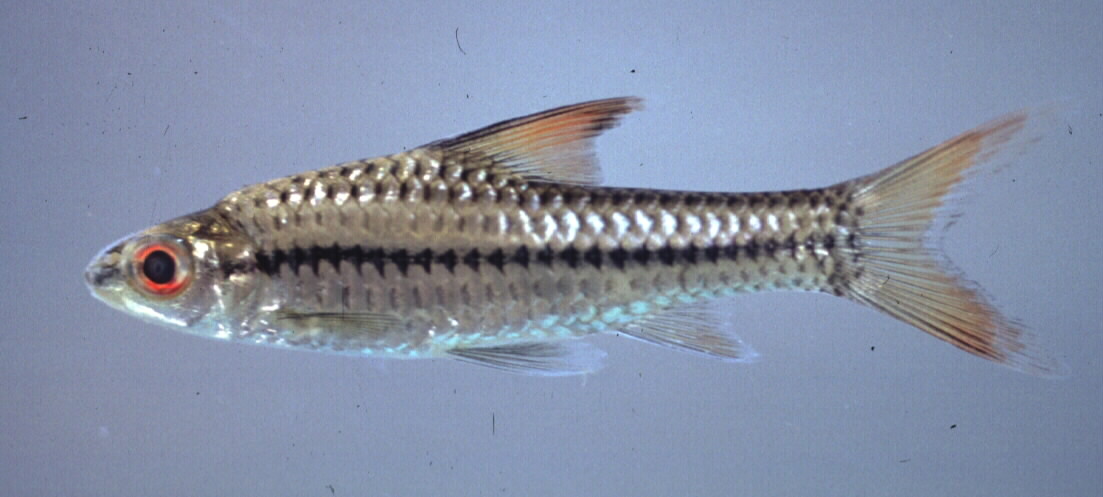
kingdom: Animalia
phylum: Chordata
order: Cypriniformes
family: Cyprinidae
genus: Enteromius
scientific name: Enteromius radiatus
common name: Beira barb
